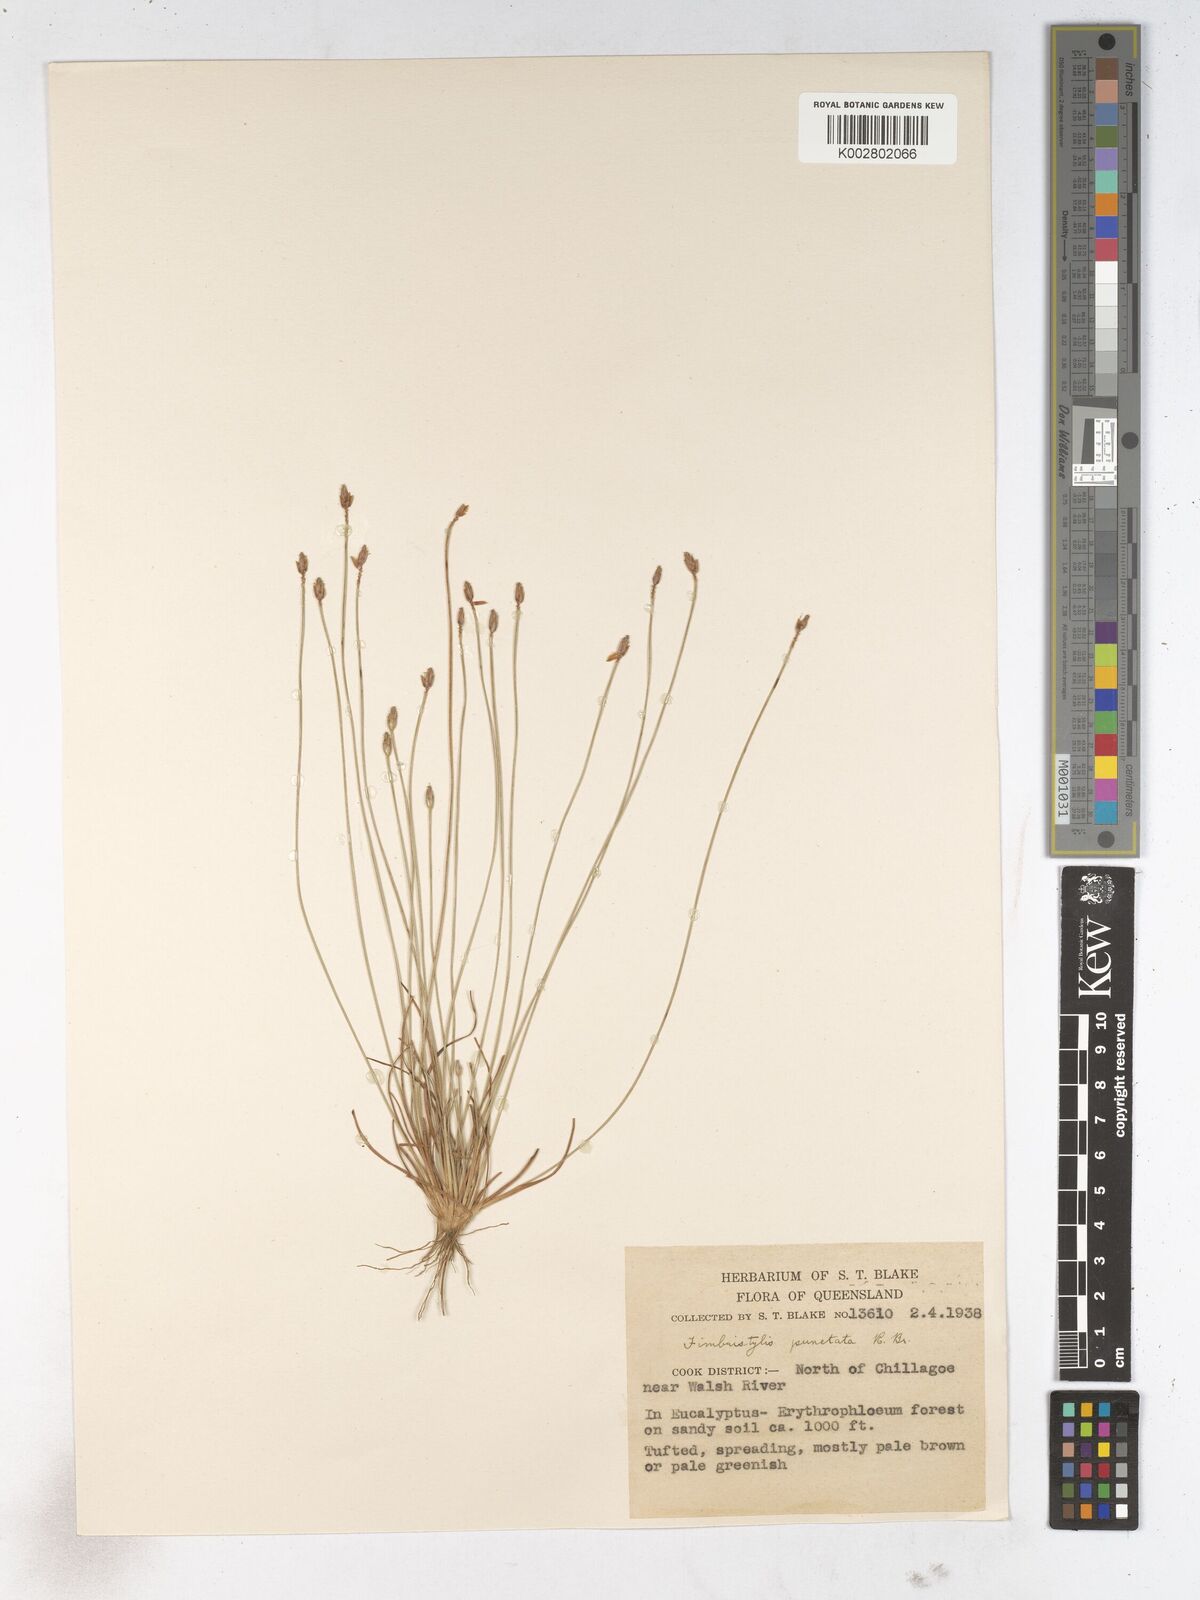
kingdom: Plantae
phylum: Tracheophyta
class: Liliopsida
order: Poales
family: Cyperaceae
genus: Fimbristylis
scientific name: Fimbristylis punctata
